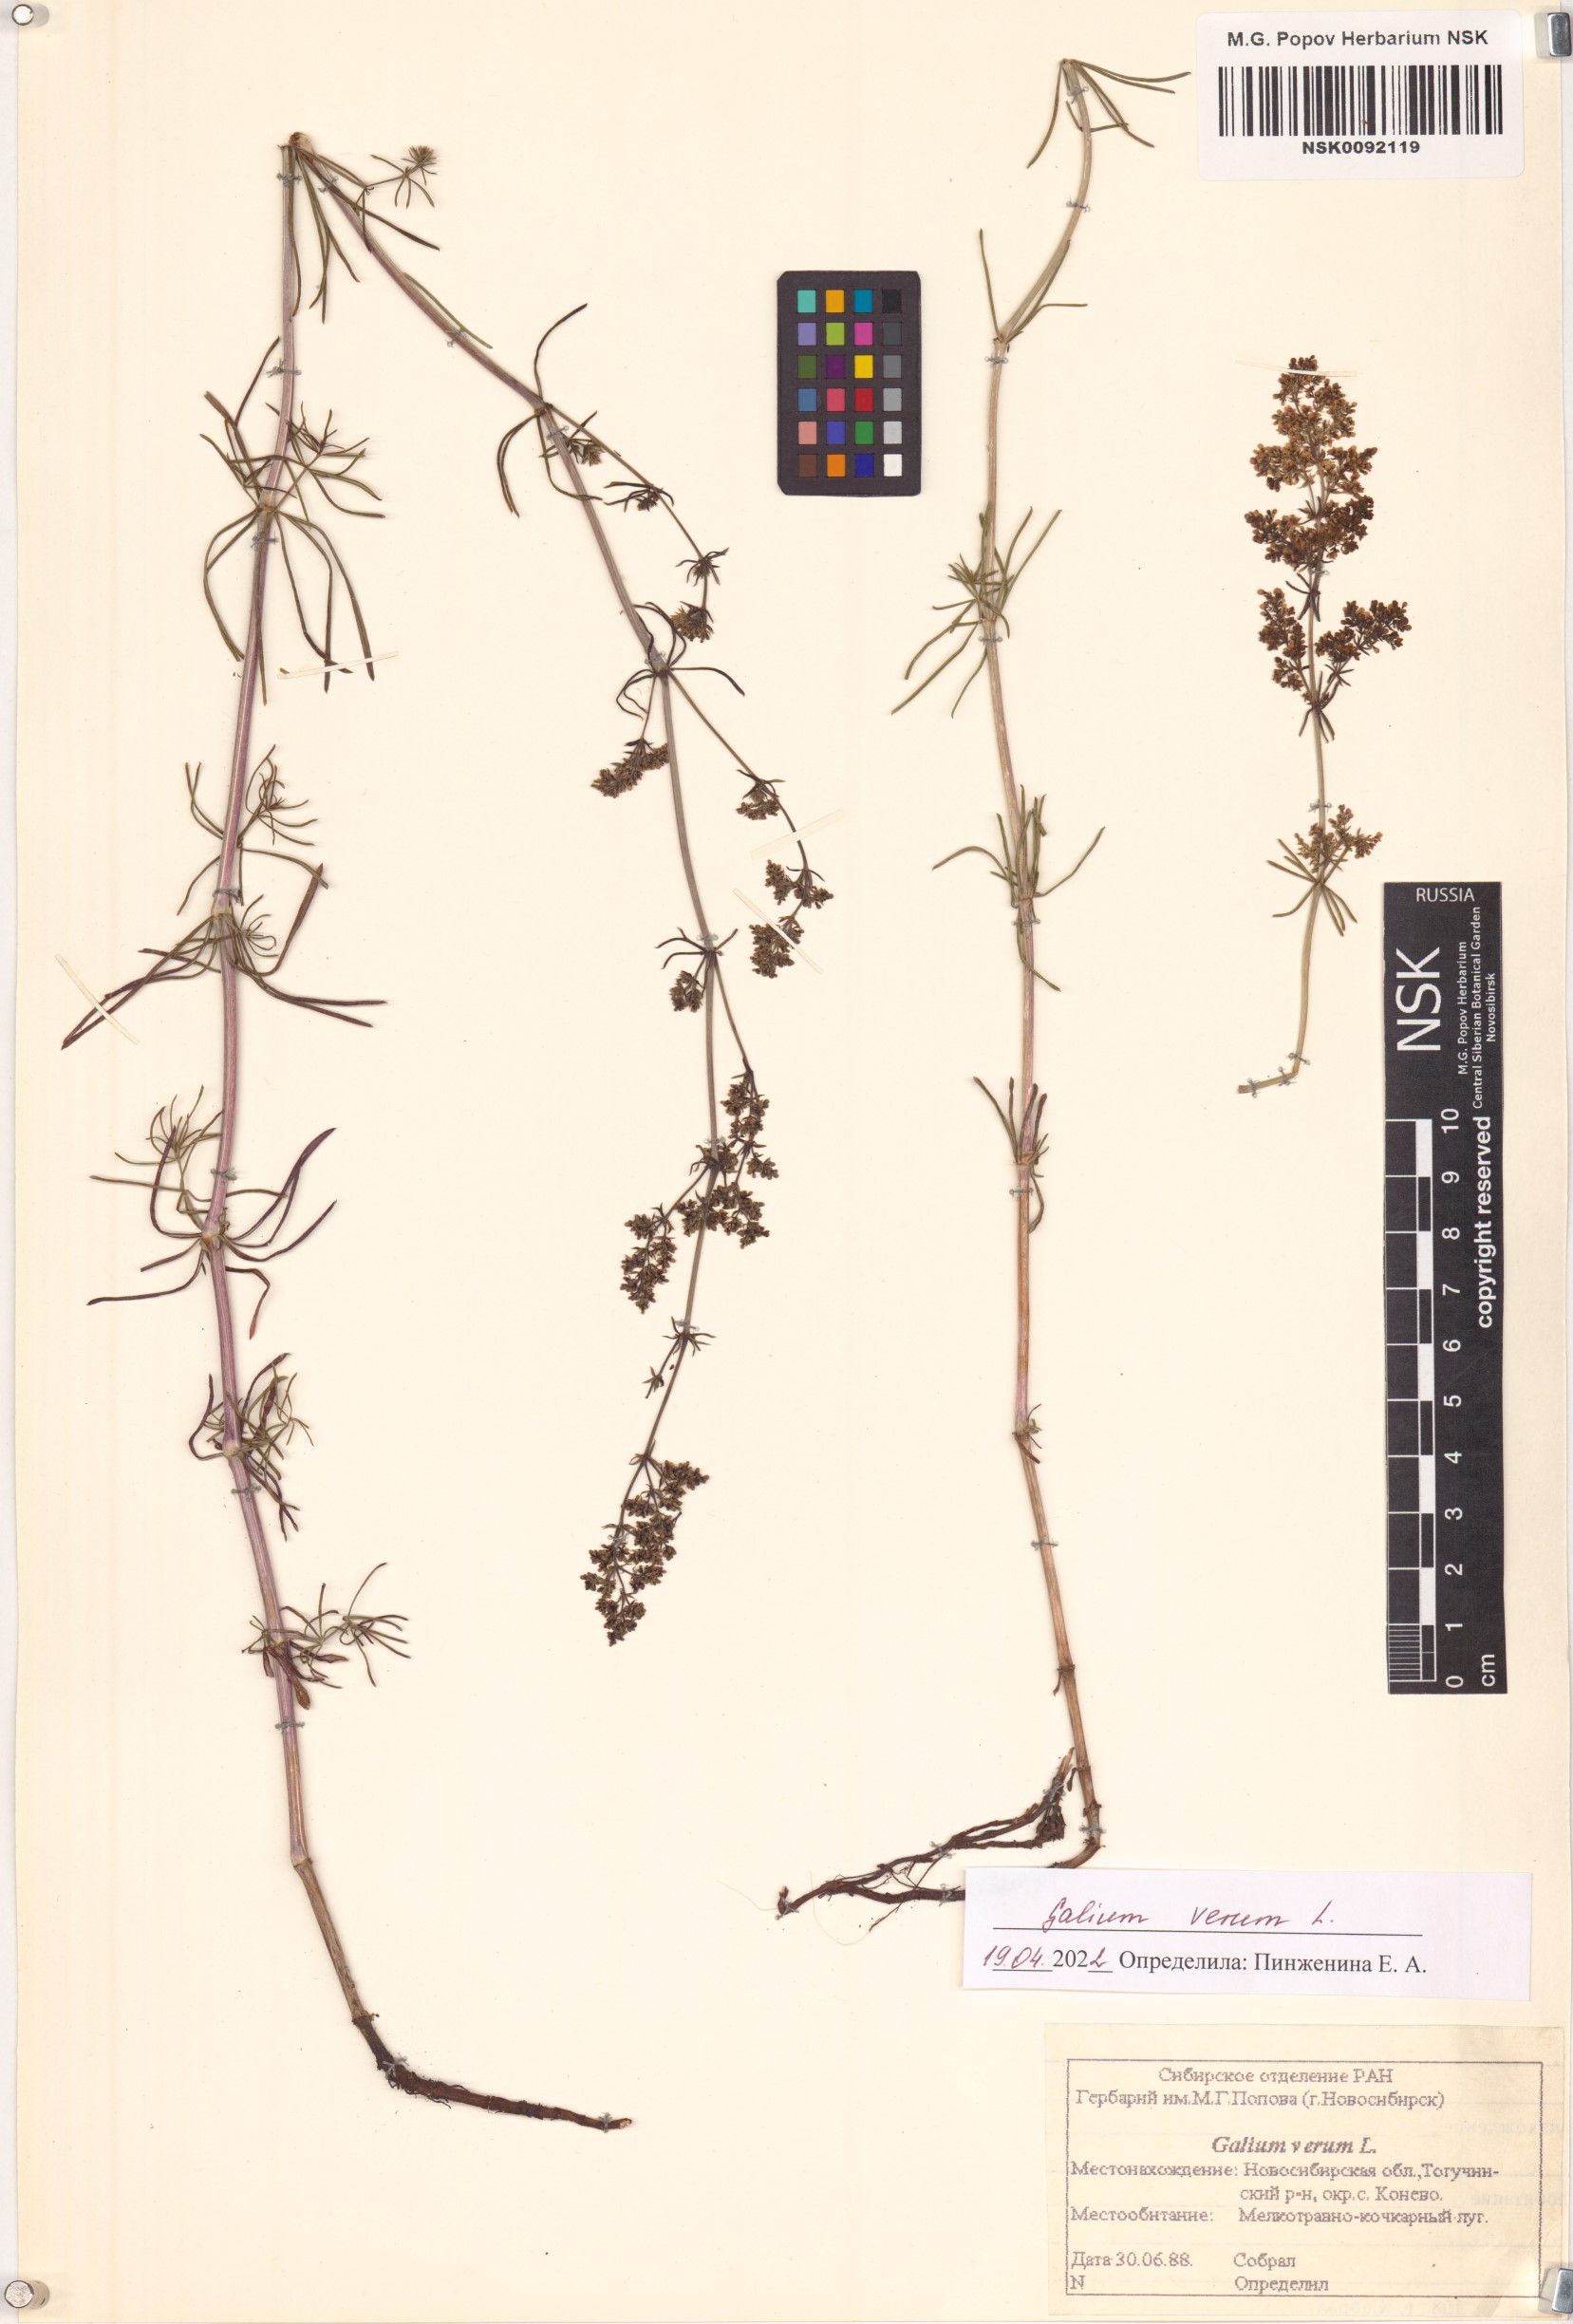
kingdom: Plantae
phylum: Tracheophyta
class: Magnoliopsida
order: Gentianales
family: Rubiaceae
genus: Galium
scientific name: Galium verum
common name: Lady's bedstraw
